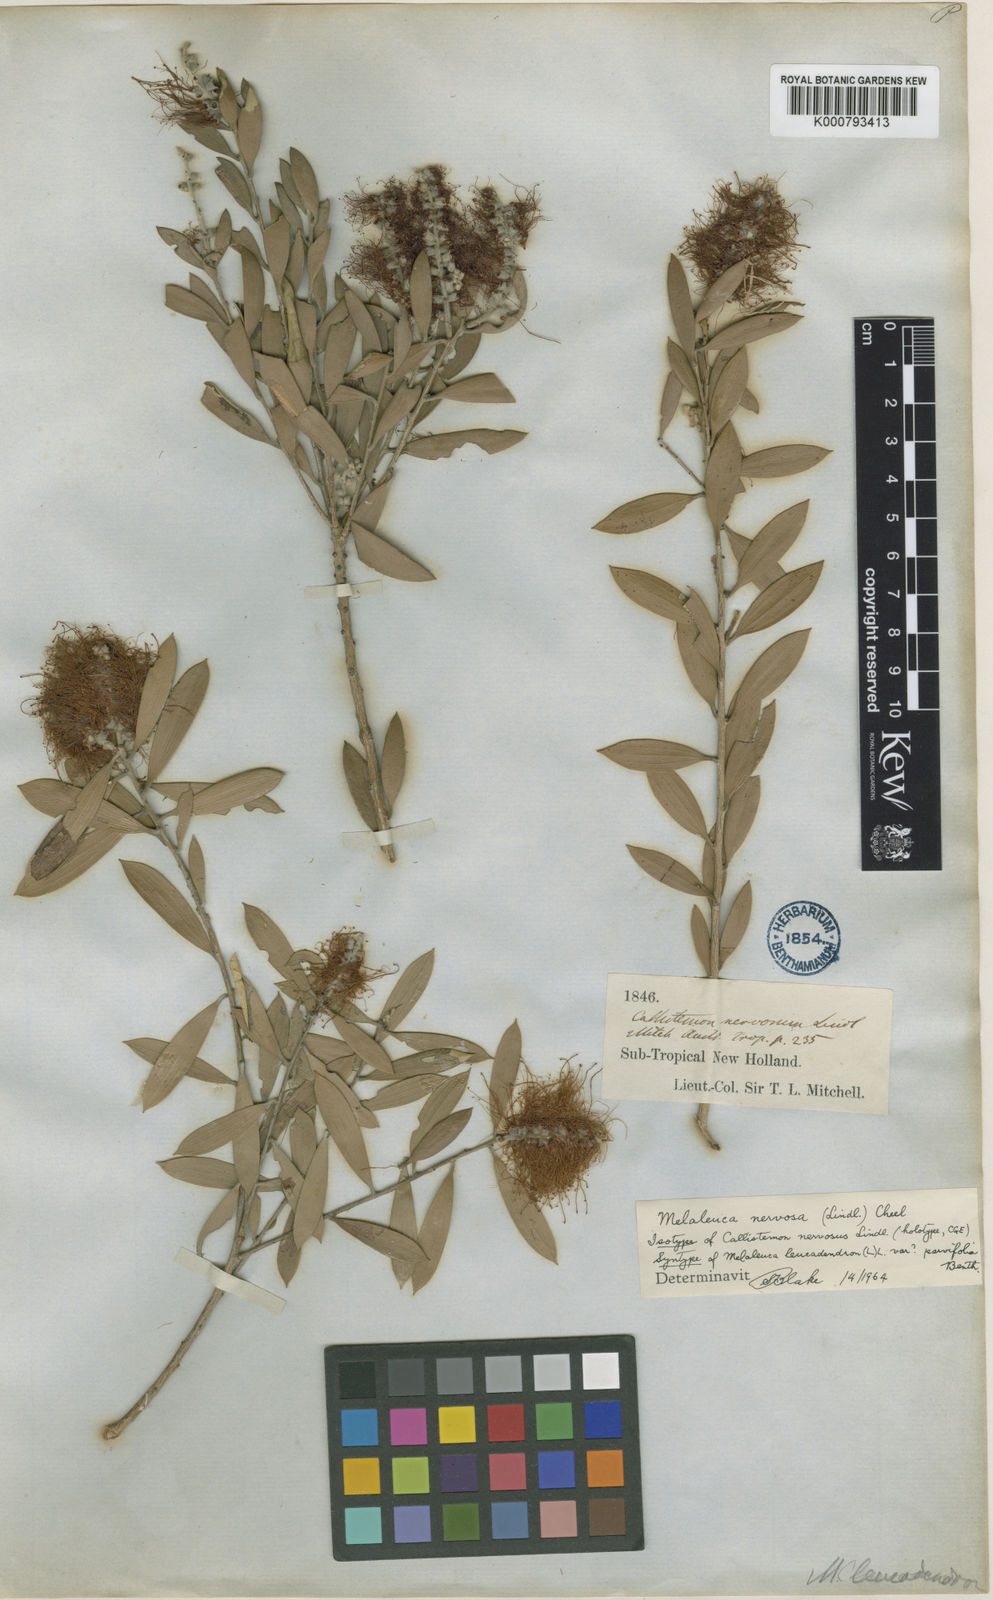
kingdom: Plantae
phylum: Tracheophyta
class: Magnoliopsida
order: Myrtales
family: Myrtaceae
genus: Melaleuca
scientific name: Melaleuca nervosa
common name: Fibrebark
